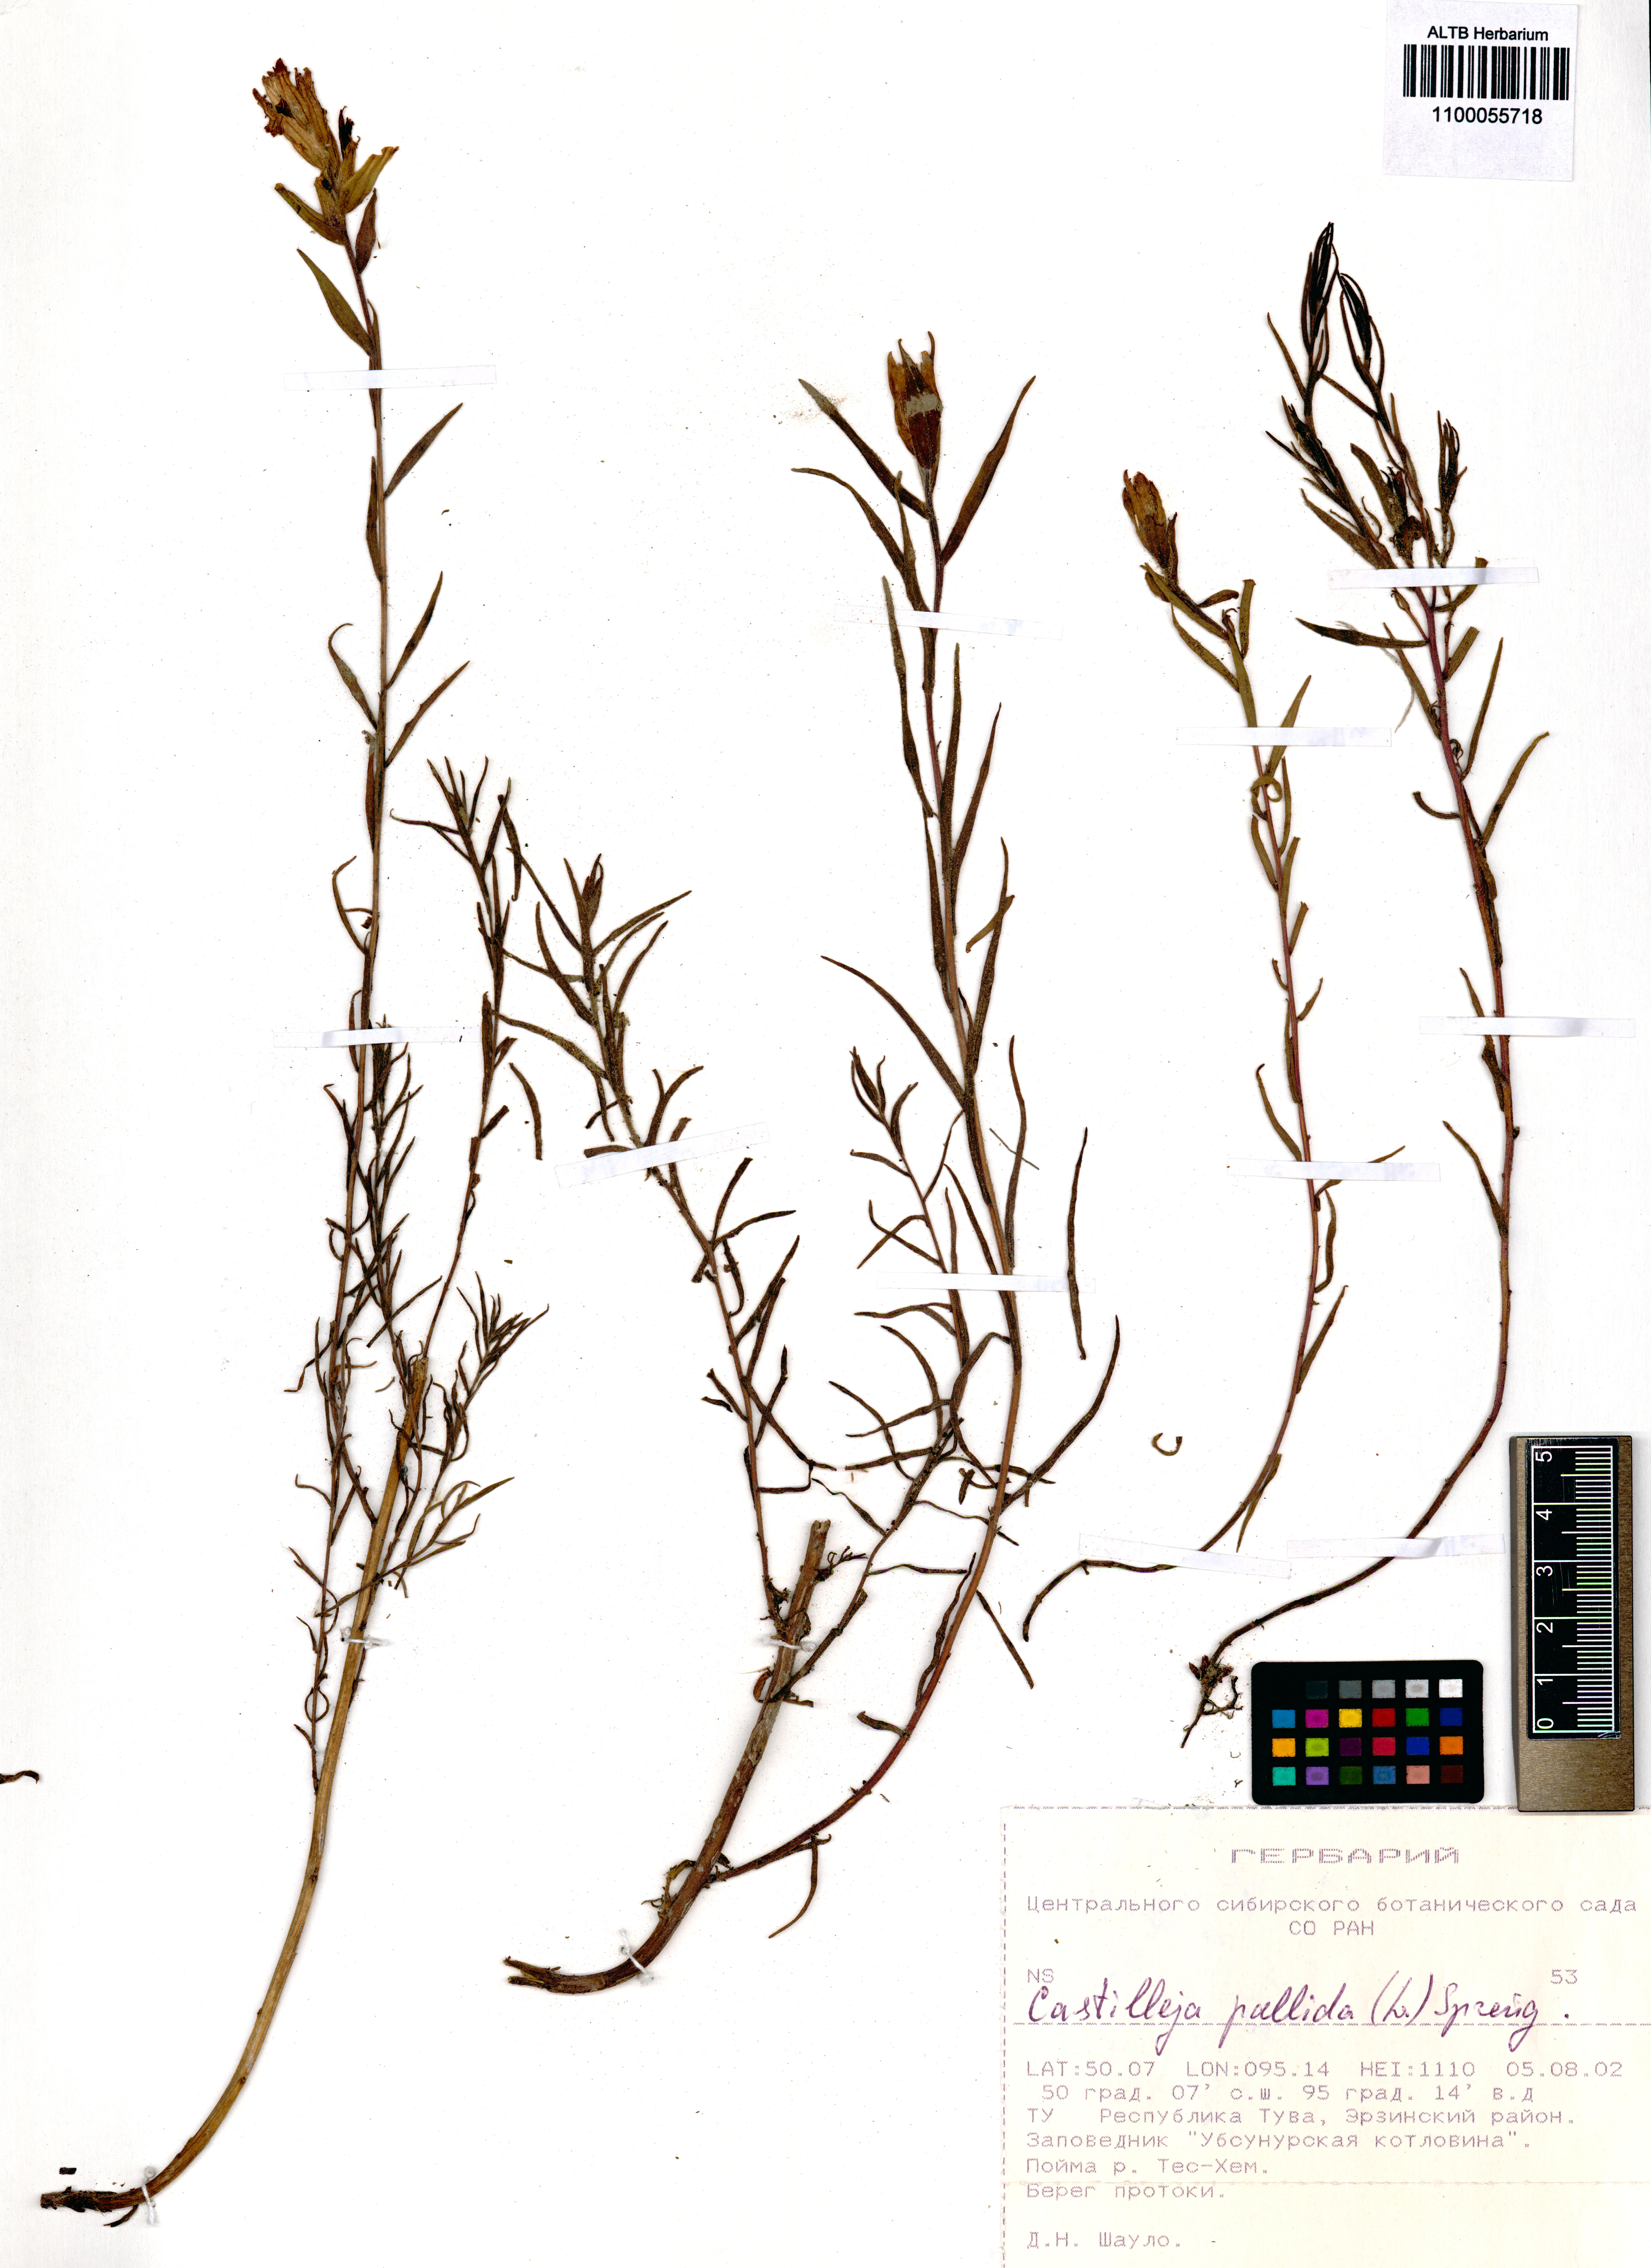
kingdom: Plantae
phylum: Tracheophyta
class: Magnoliopsida
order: Lamiales
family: Orobanchaceae
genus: Castilleja
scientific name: Castilleja pallida
